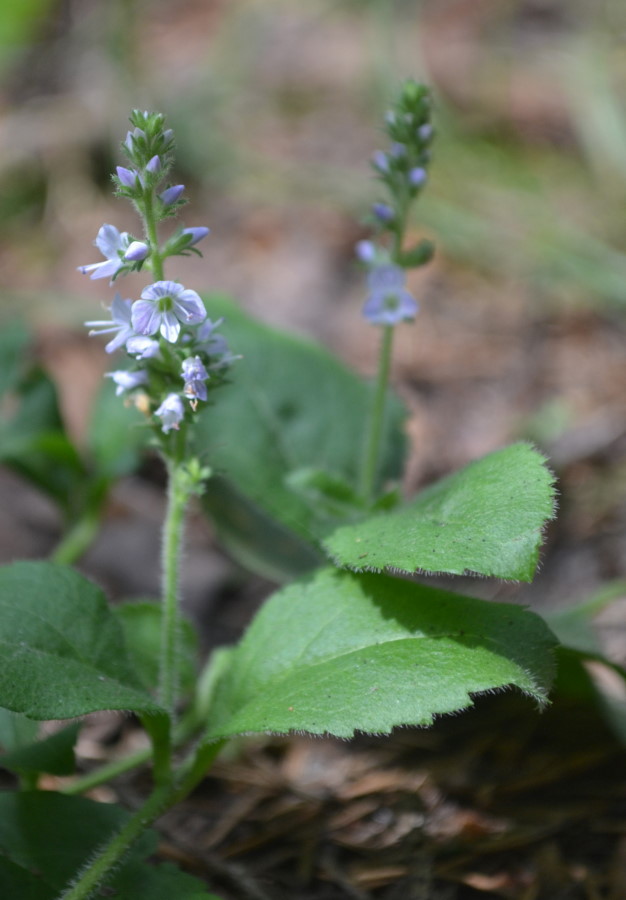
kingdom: Plantae
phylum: Tracheophyta
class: Magnoliopsida
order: Lamiales
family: Plantaginaceae
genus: Veronica
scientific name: Veronica officinalis
